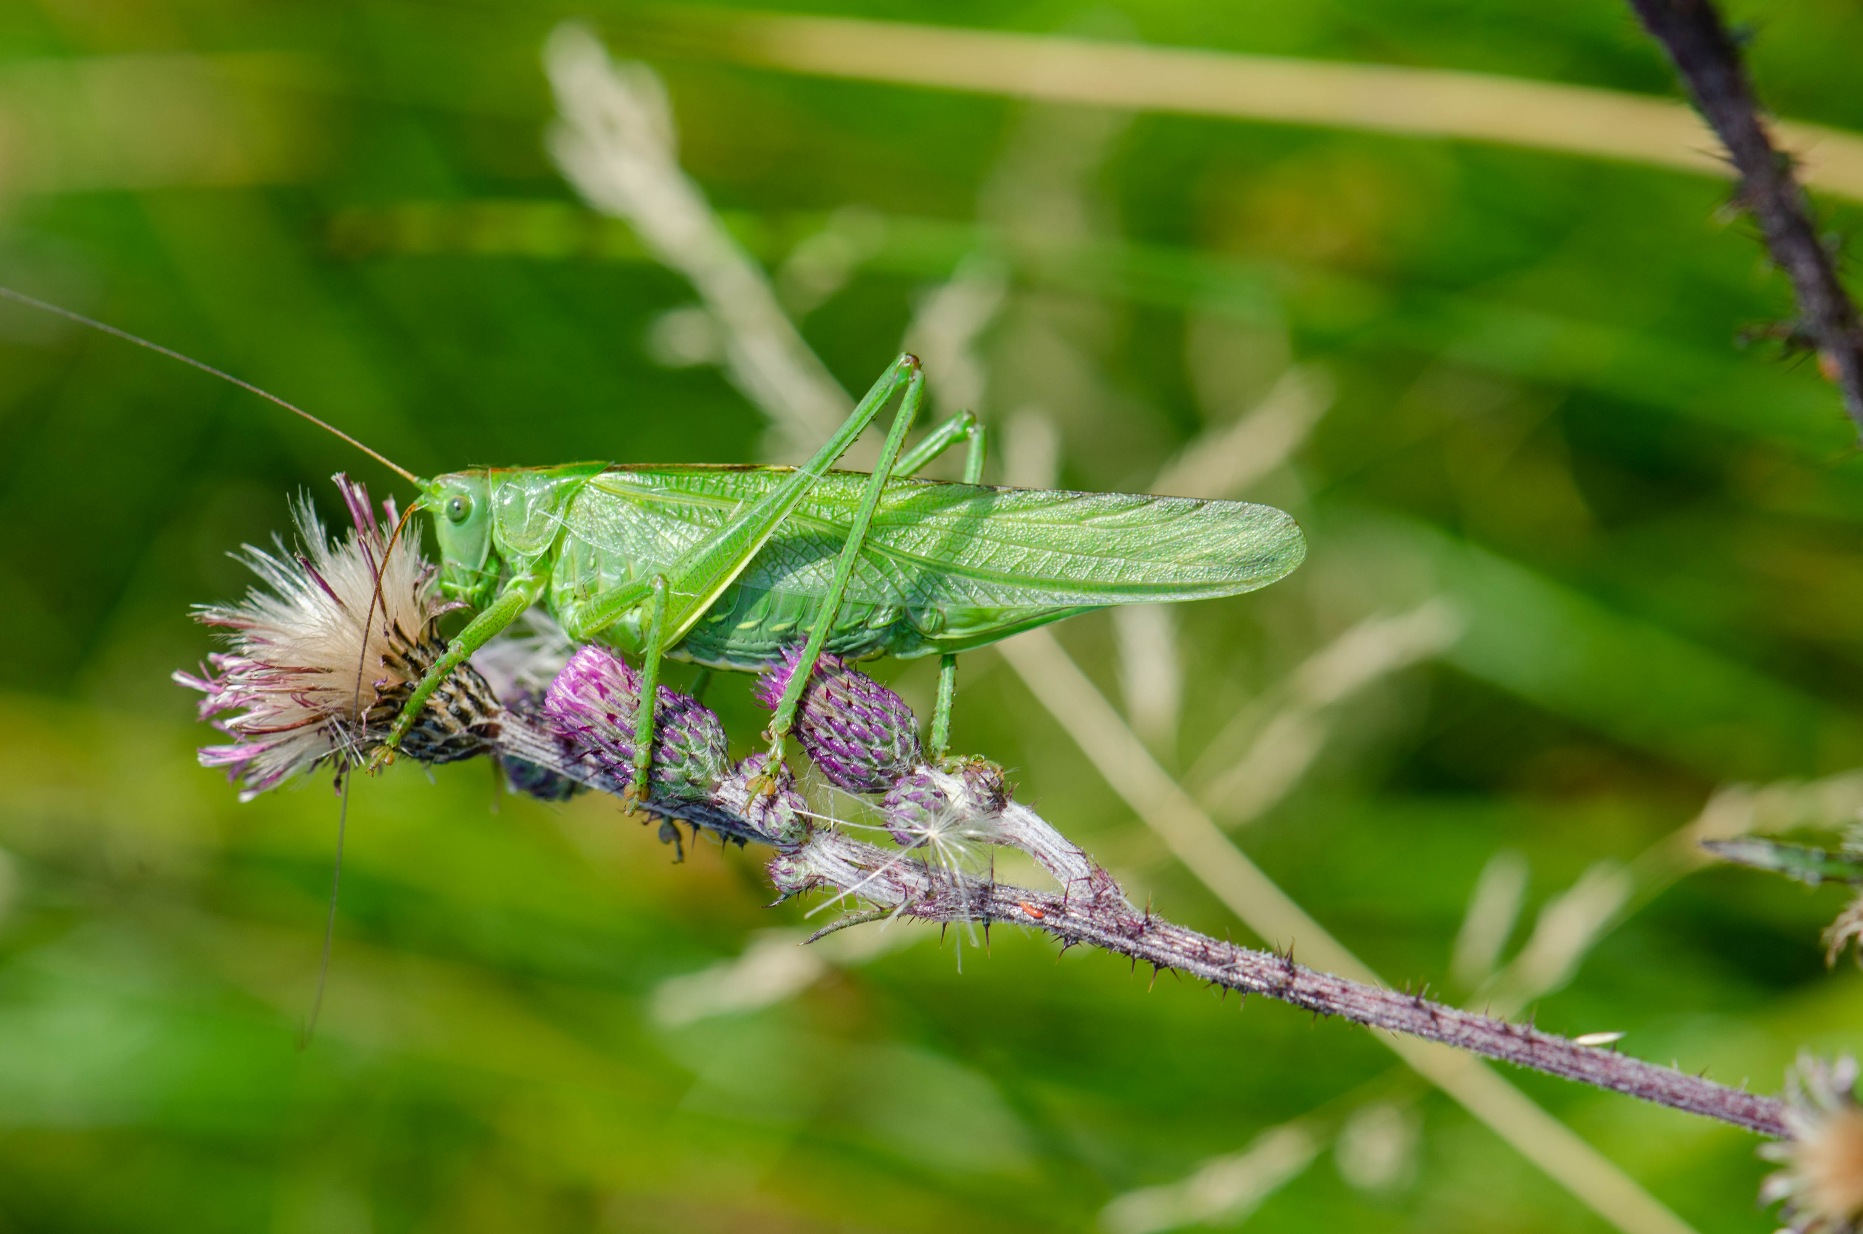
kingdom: Animalia
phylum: Arthropoda
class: Insecta
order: Orthoptera
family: Tettigoniidae
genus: Tettigonia
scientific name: Tettigonia viridissima
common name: Stor grøn løvgræshoppe
